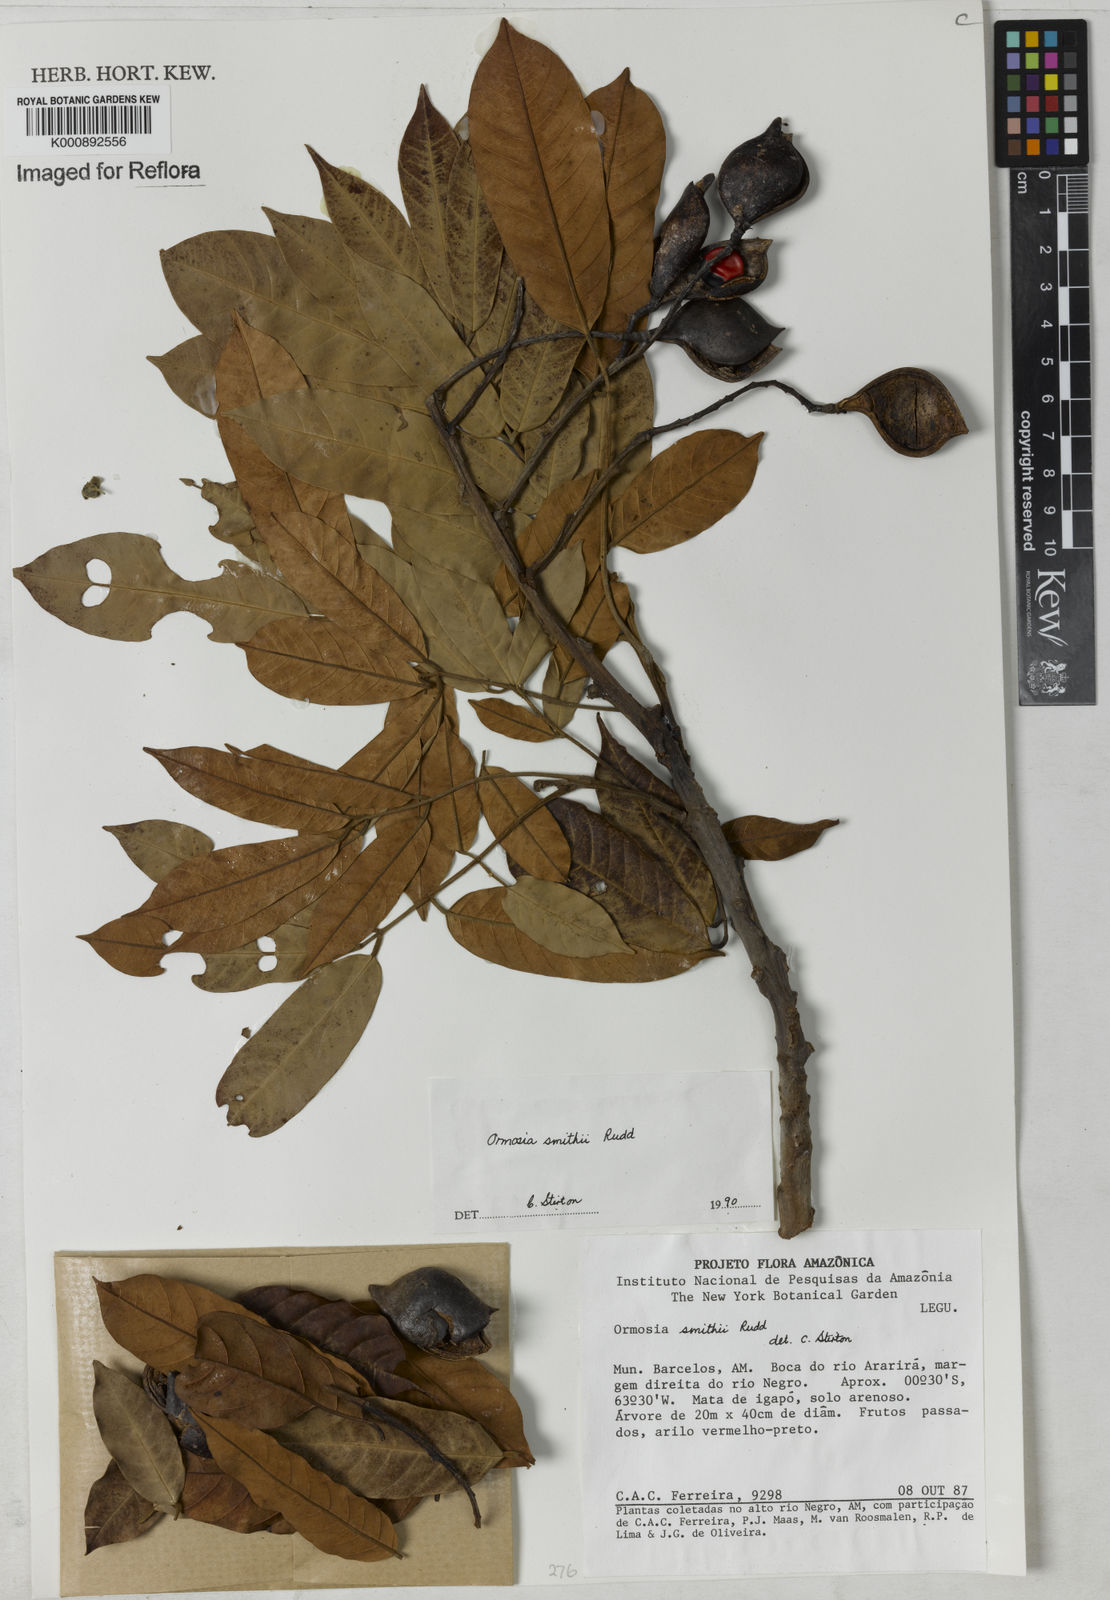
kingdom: Plantae
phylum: Tracheophyta
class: Magnoliopsida
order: Fabales
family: Fabaceae
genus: Ormosia
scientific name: Ormosia smithii
